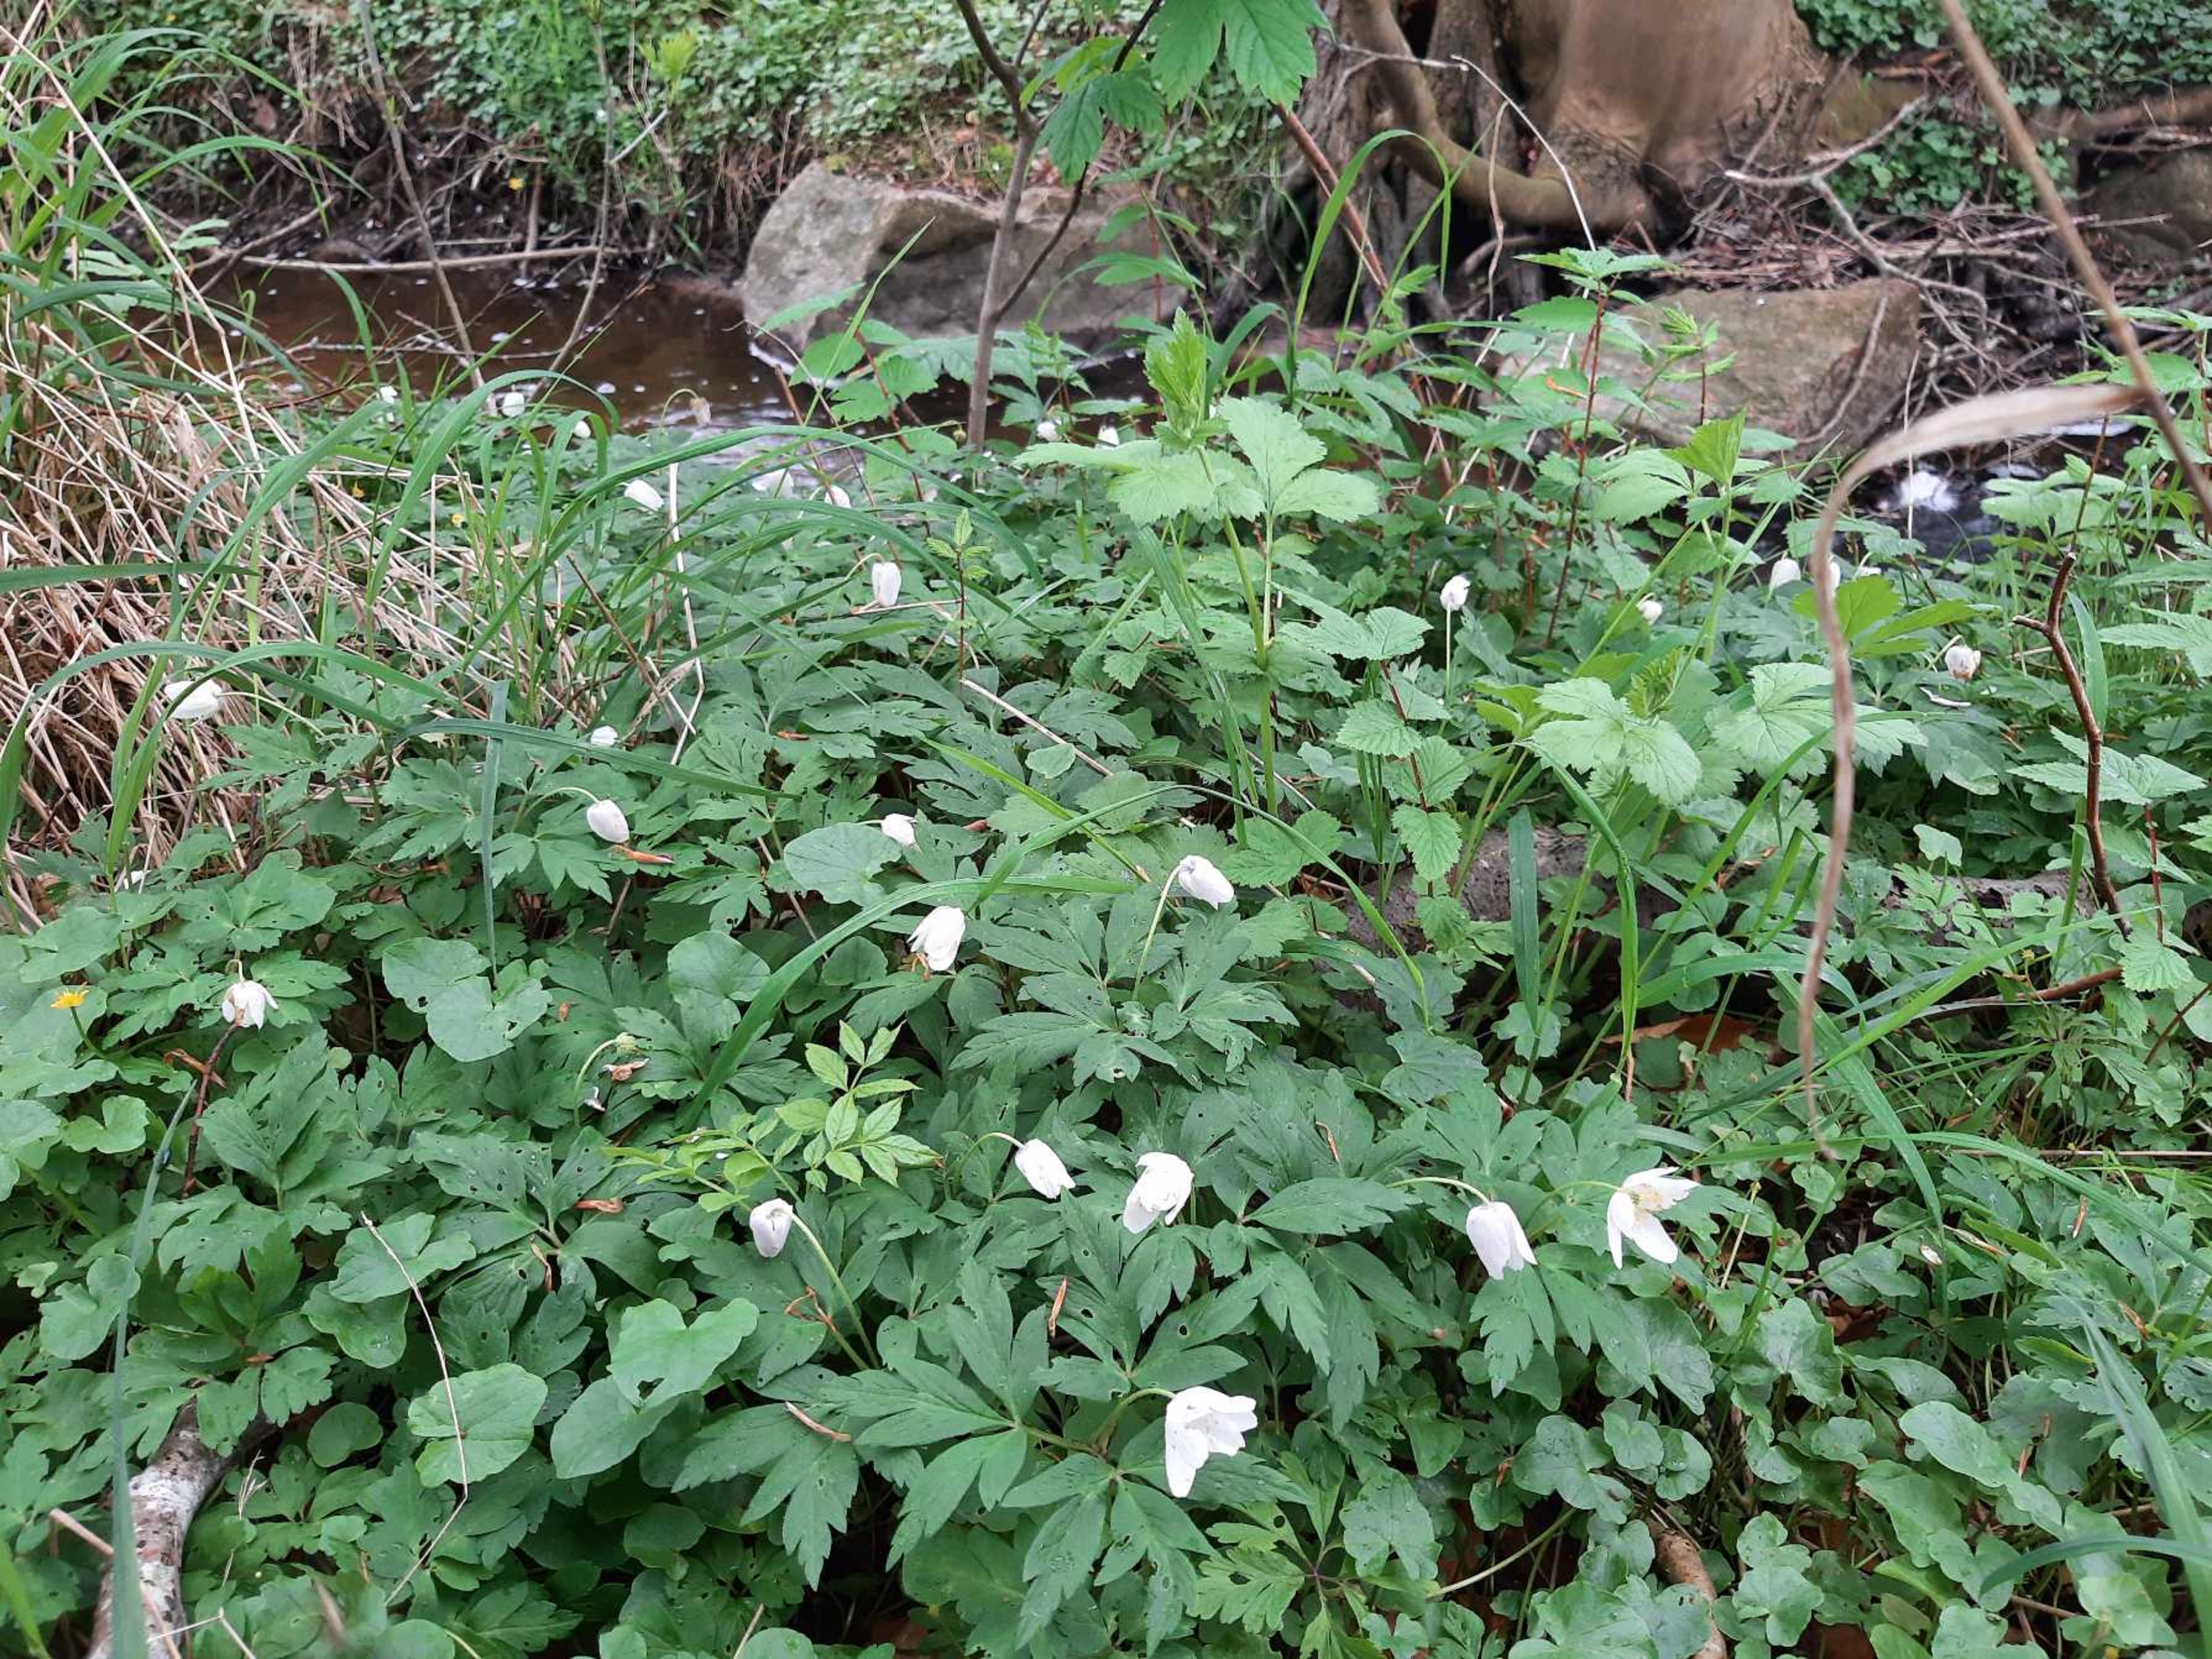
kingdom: Plantae
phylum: Tracheophyta
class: Magnoliopsida
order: Ranunculales
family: Ranunculaceae
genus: Anemone
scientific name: Anemone nemorosa
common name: Hvid anemone
